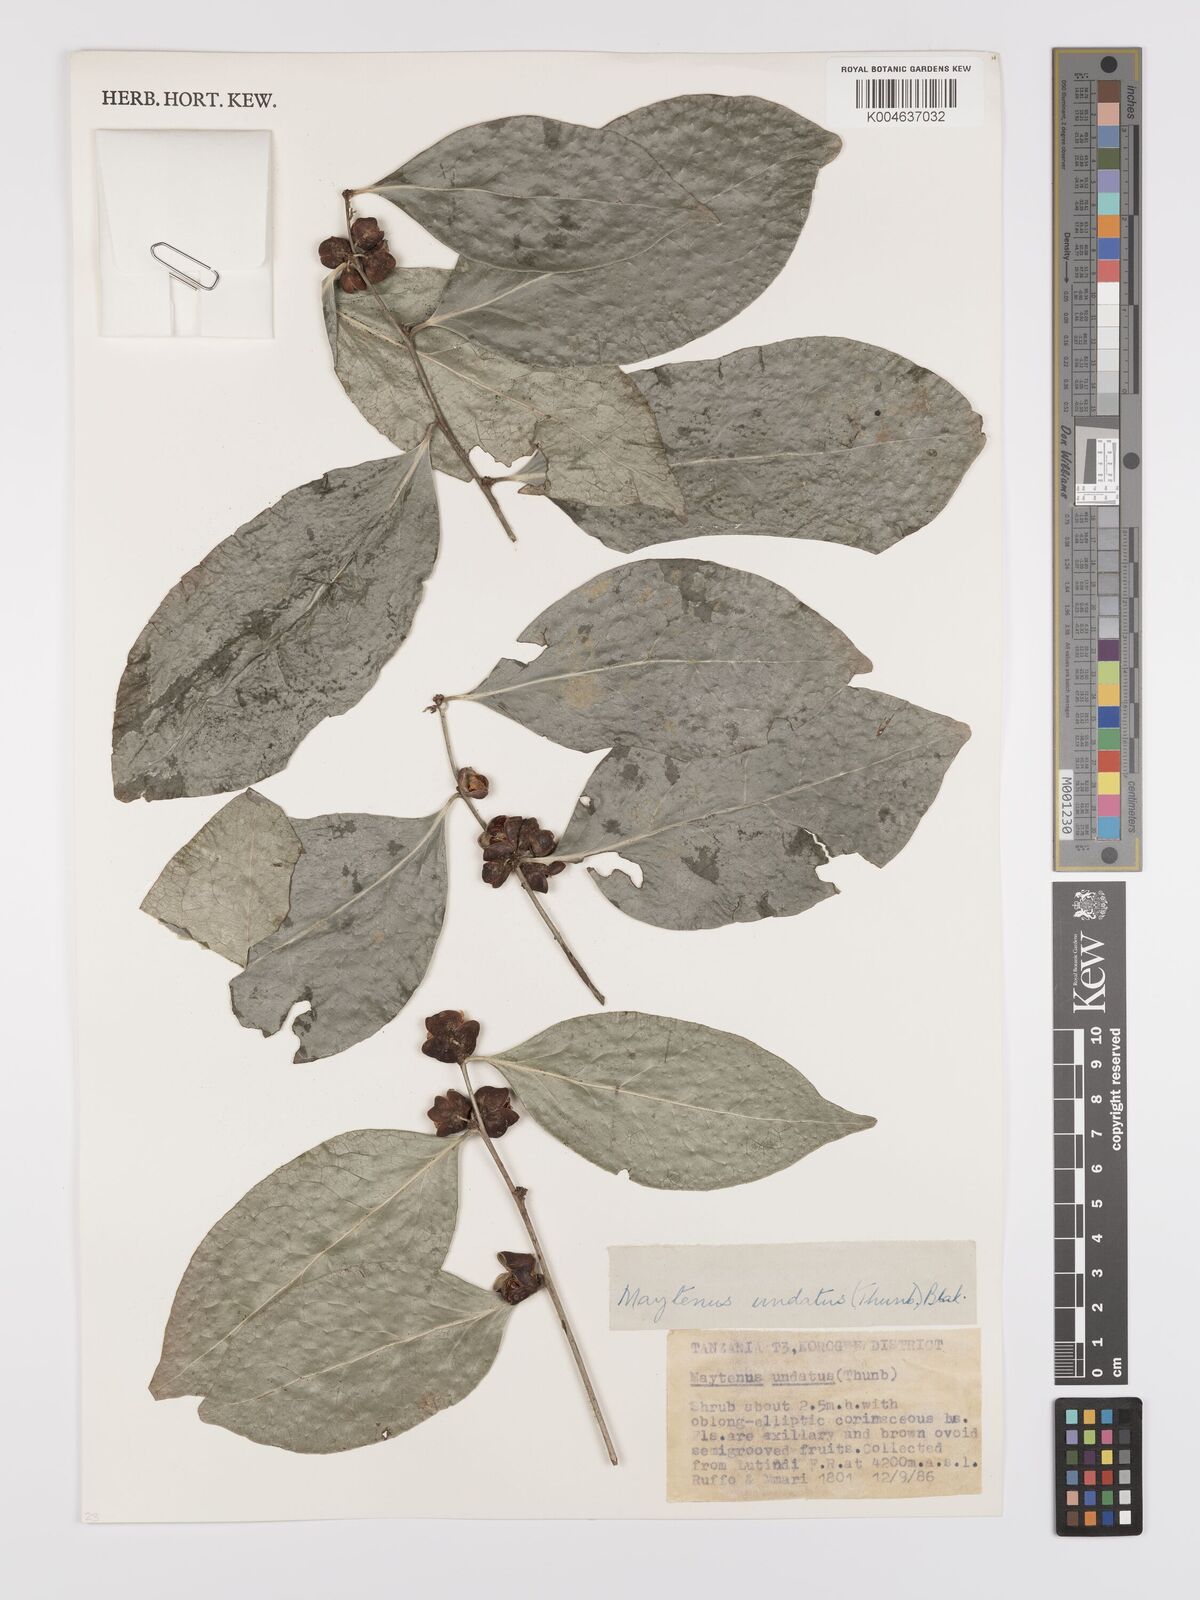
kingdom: Plantae
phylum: Tracheophyta
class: Magnoliopsida
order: Celastrales
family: Celastraceae
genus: Gymnosporia
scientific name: Gymnosporia undata
